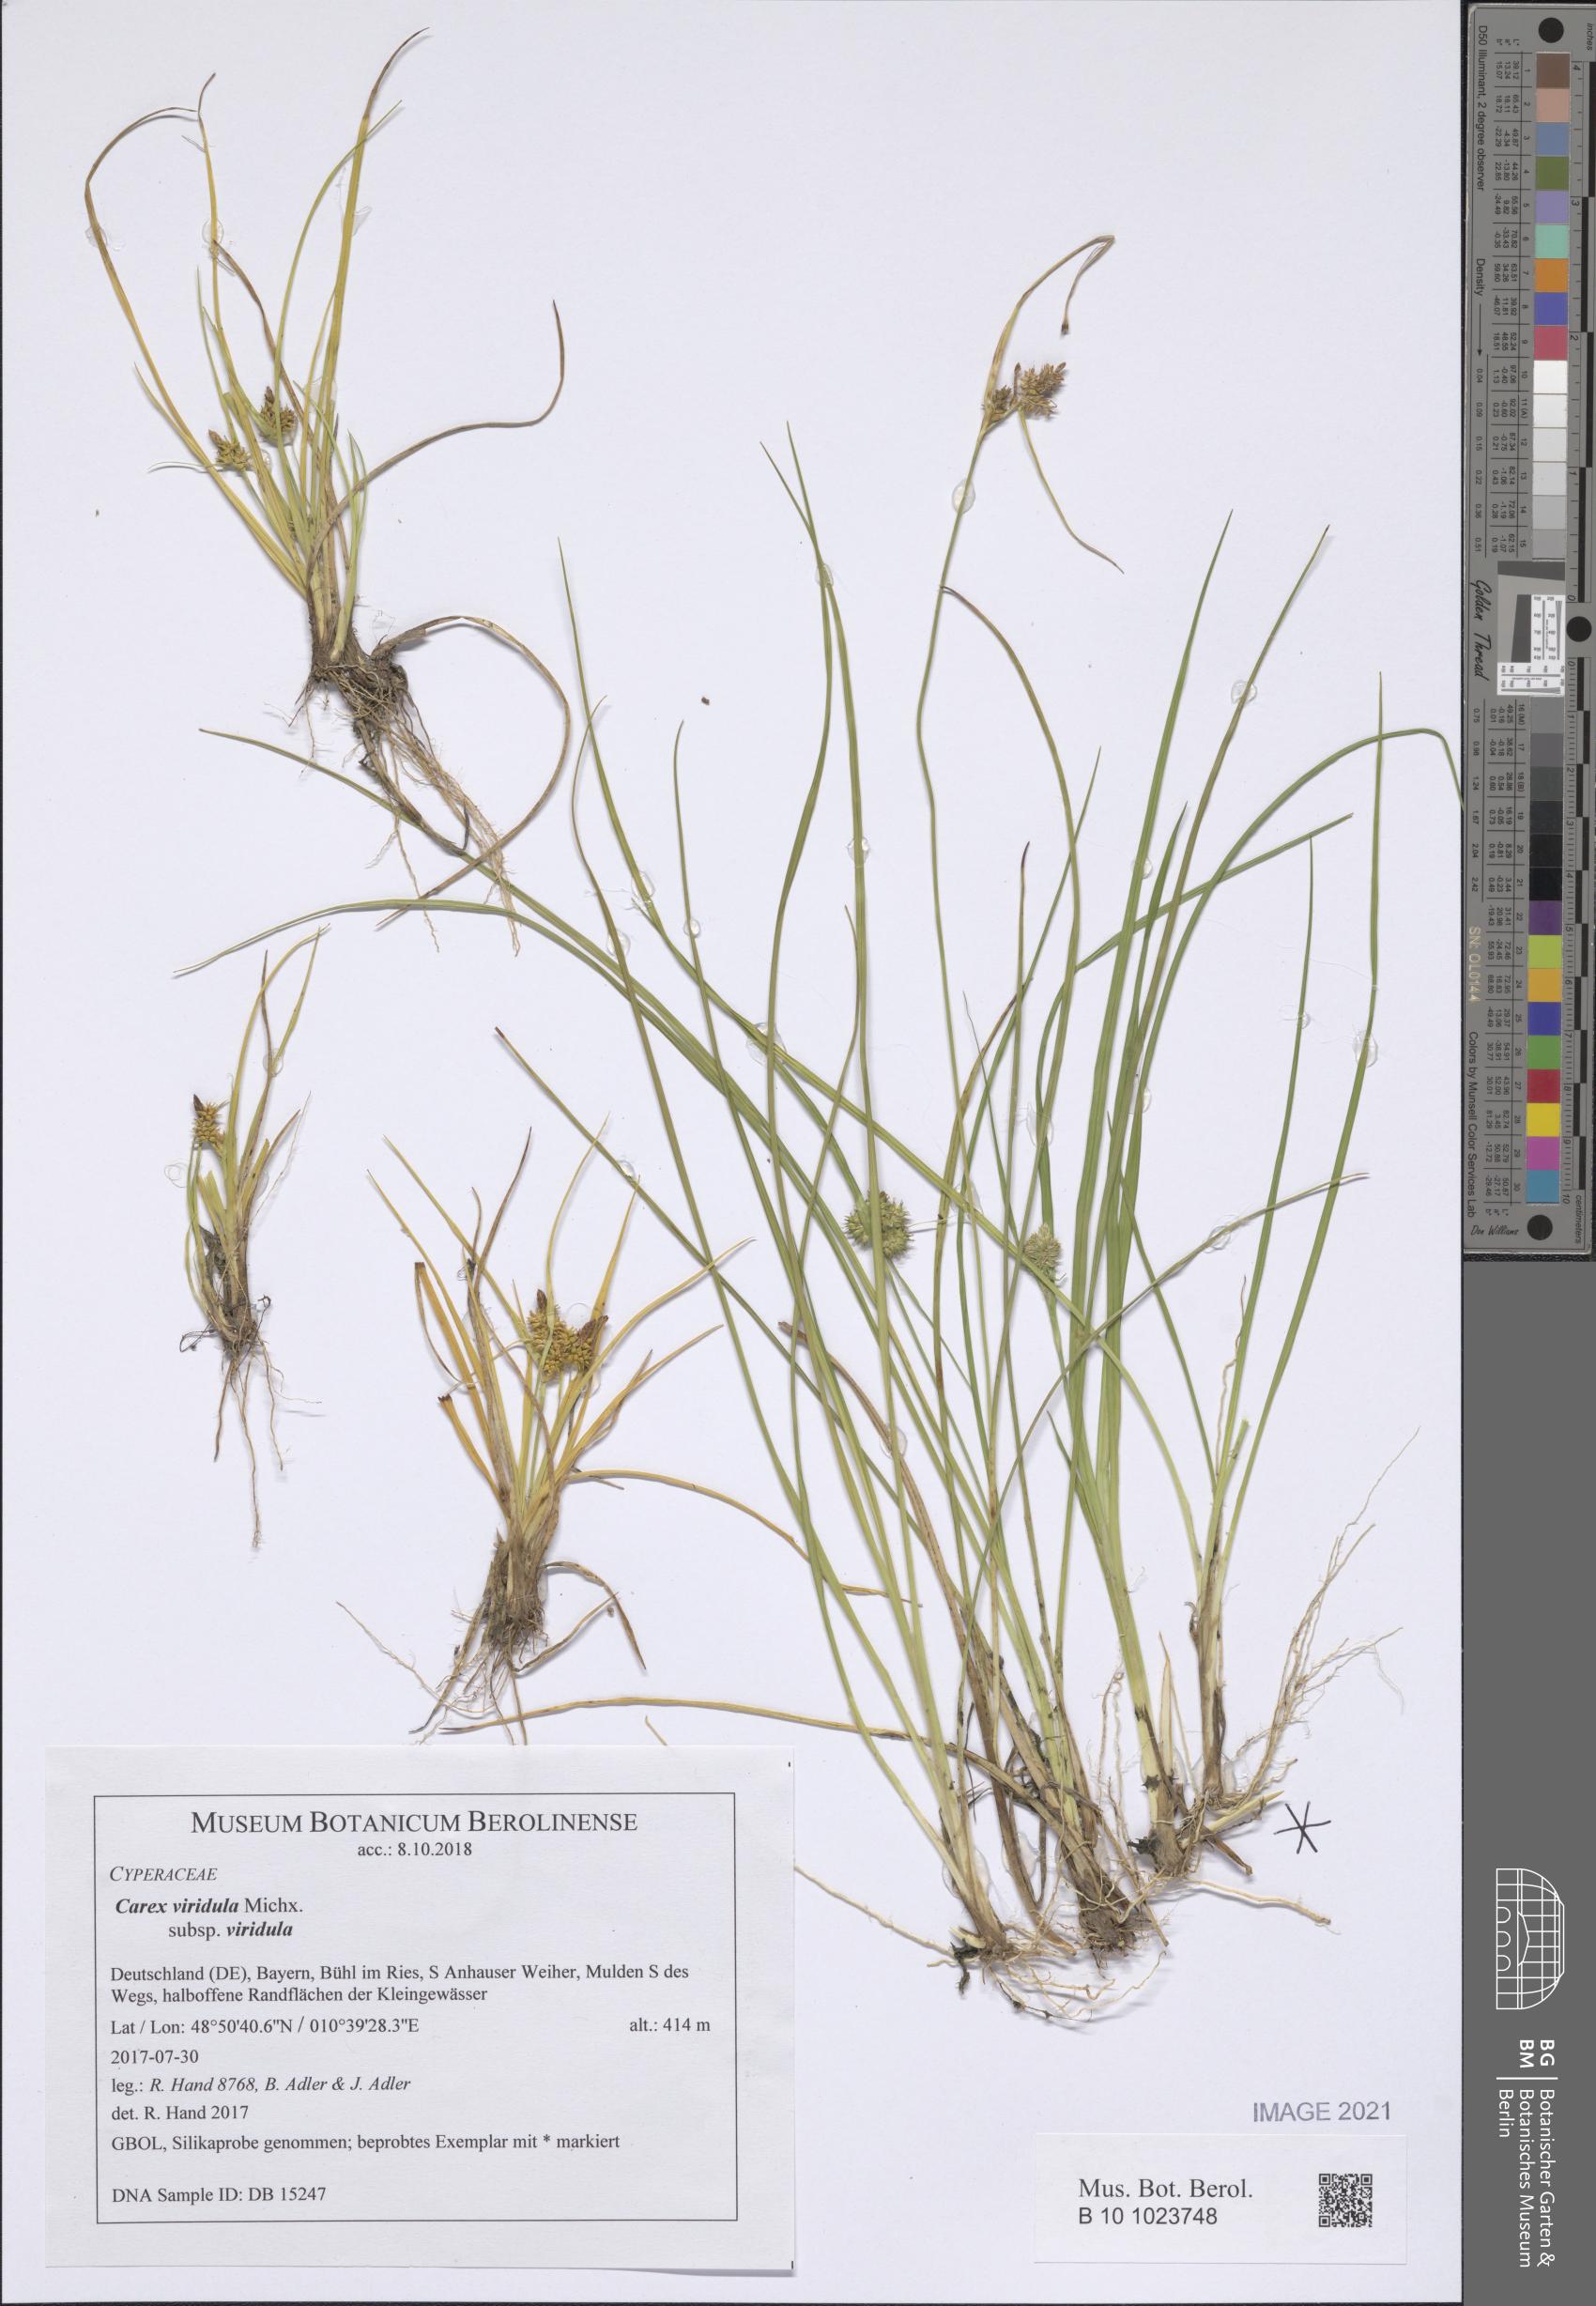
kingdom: Plantae
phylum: Tracheophyta
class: Liliopsida
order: Poales
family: Cyperaceae
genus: Carex
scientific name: Carex oederi
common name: Common & small-fruited yellow-sedge
